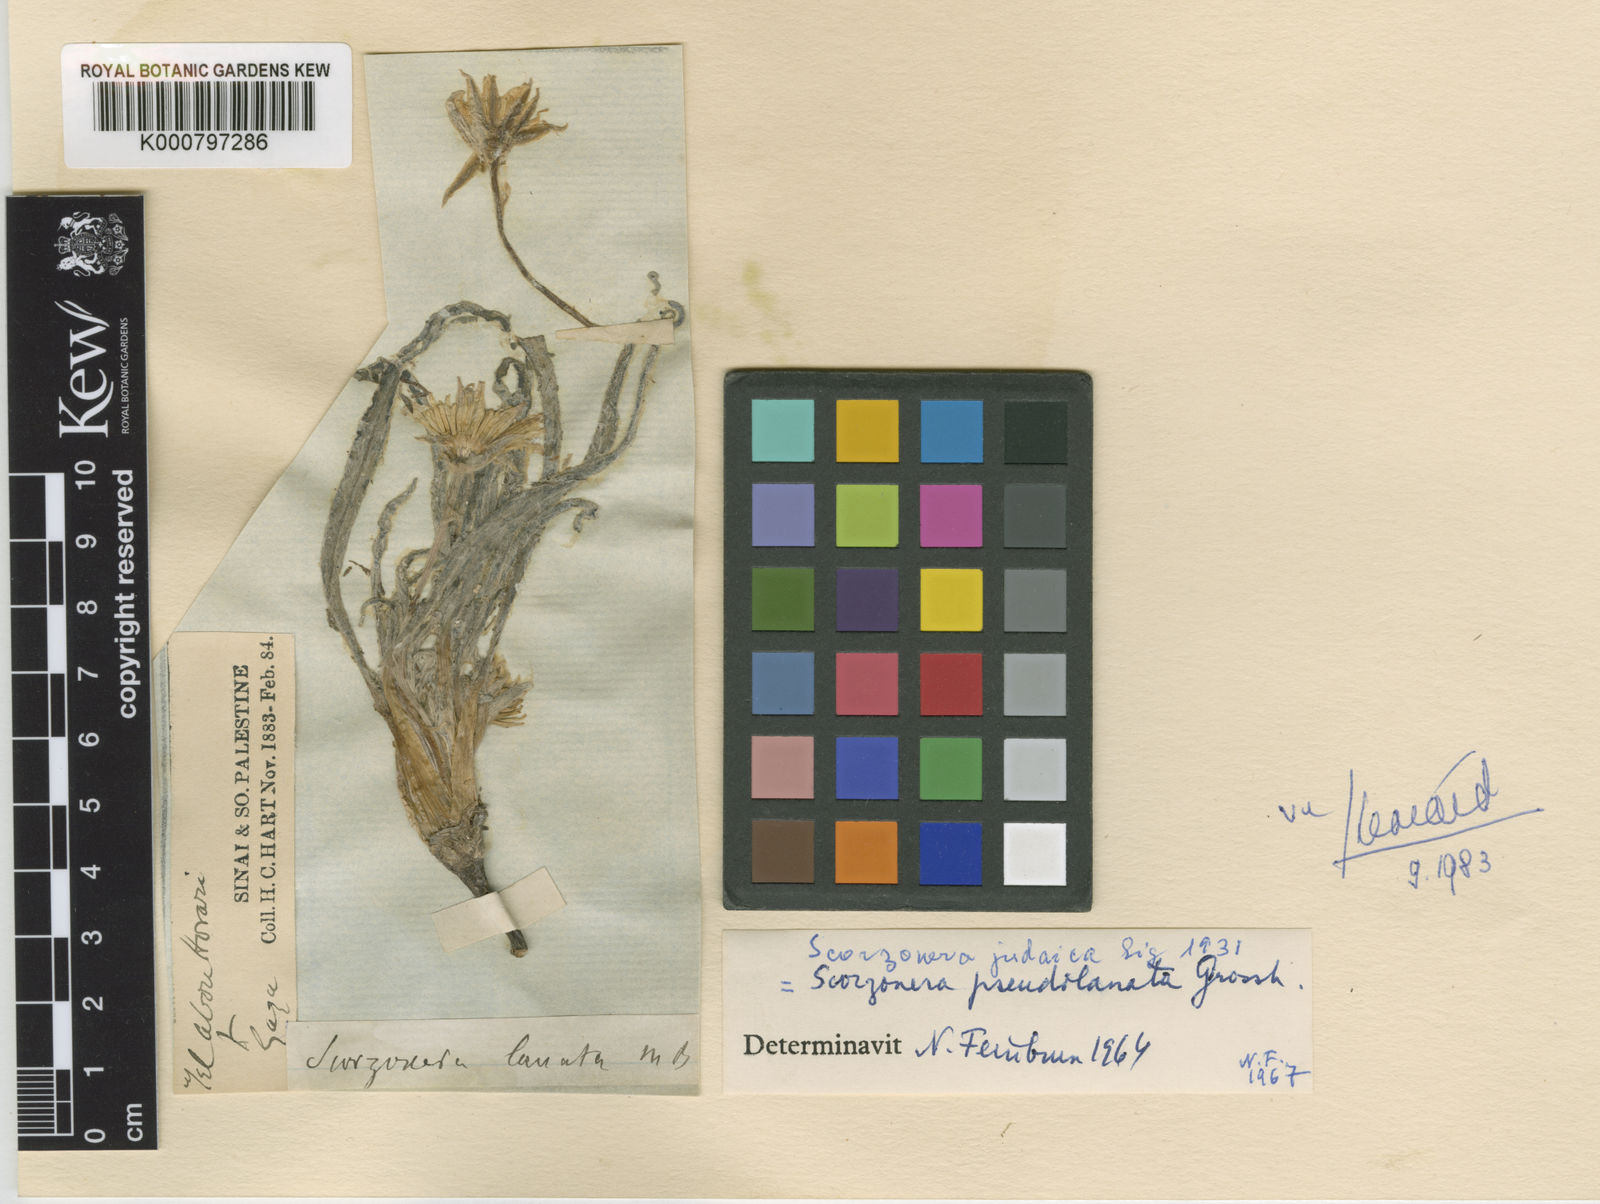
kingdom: Plantae
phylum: Tracheophyta
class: Magnoliopsida
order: Asterales
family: Asteraceae
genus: Bocquetia
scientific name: Bocquetia pseudolanata
